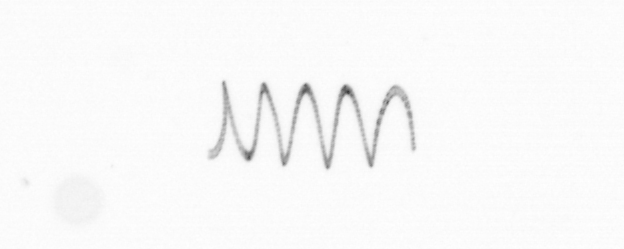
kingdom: Chromista
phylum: Ochrophyta
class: Bacillariophyceae
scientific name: Bacillariophyceae
